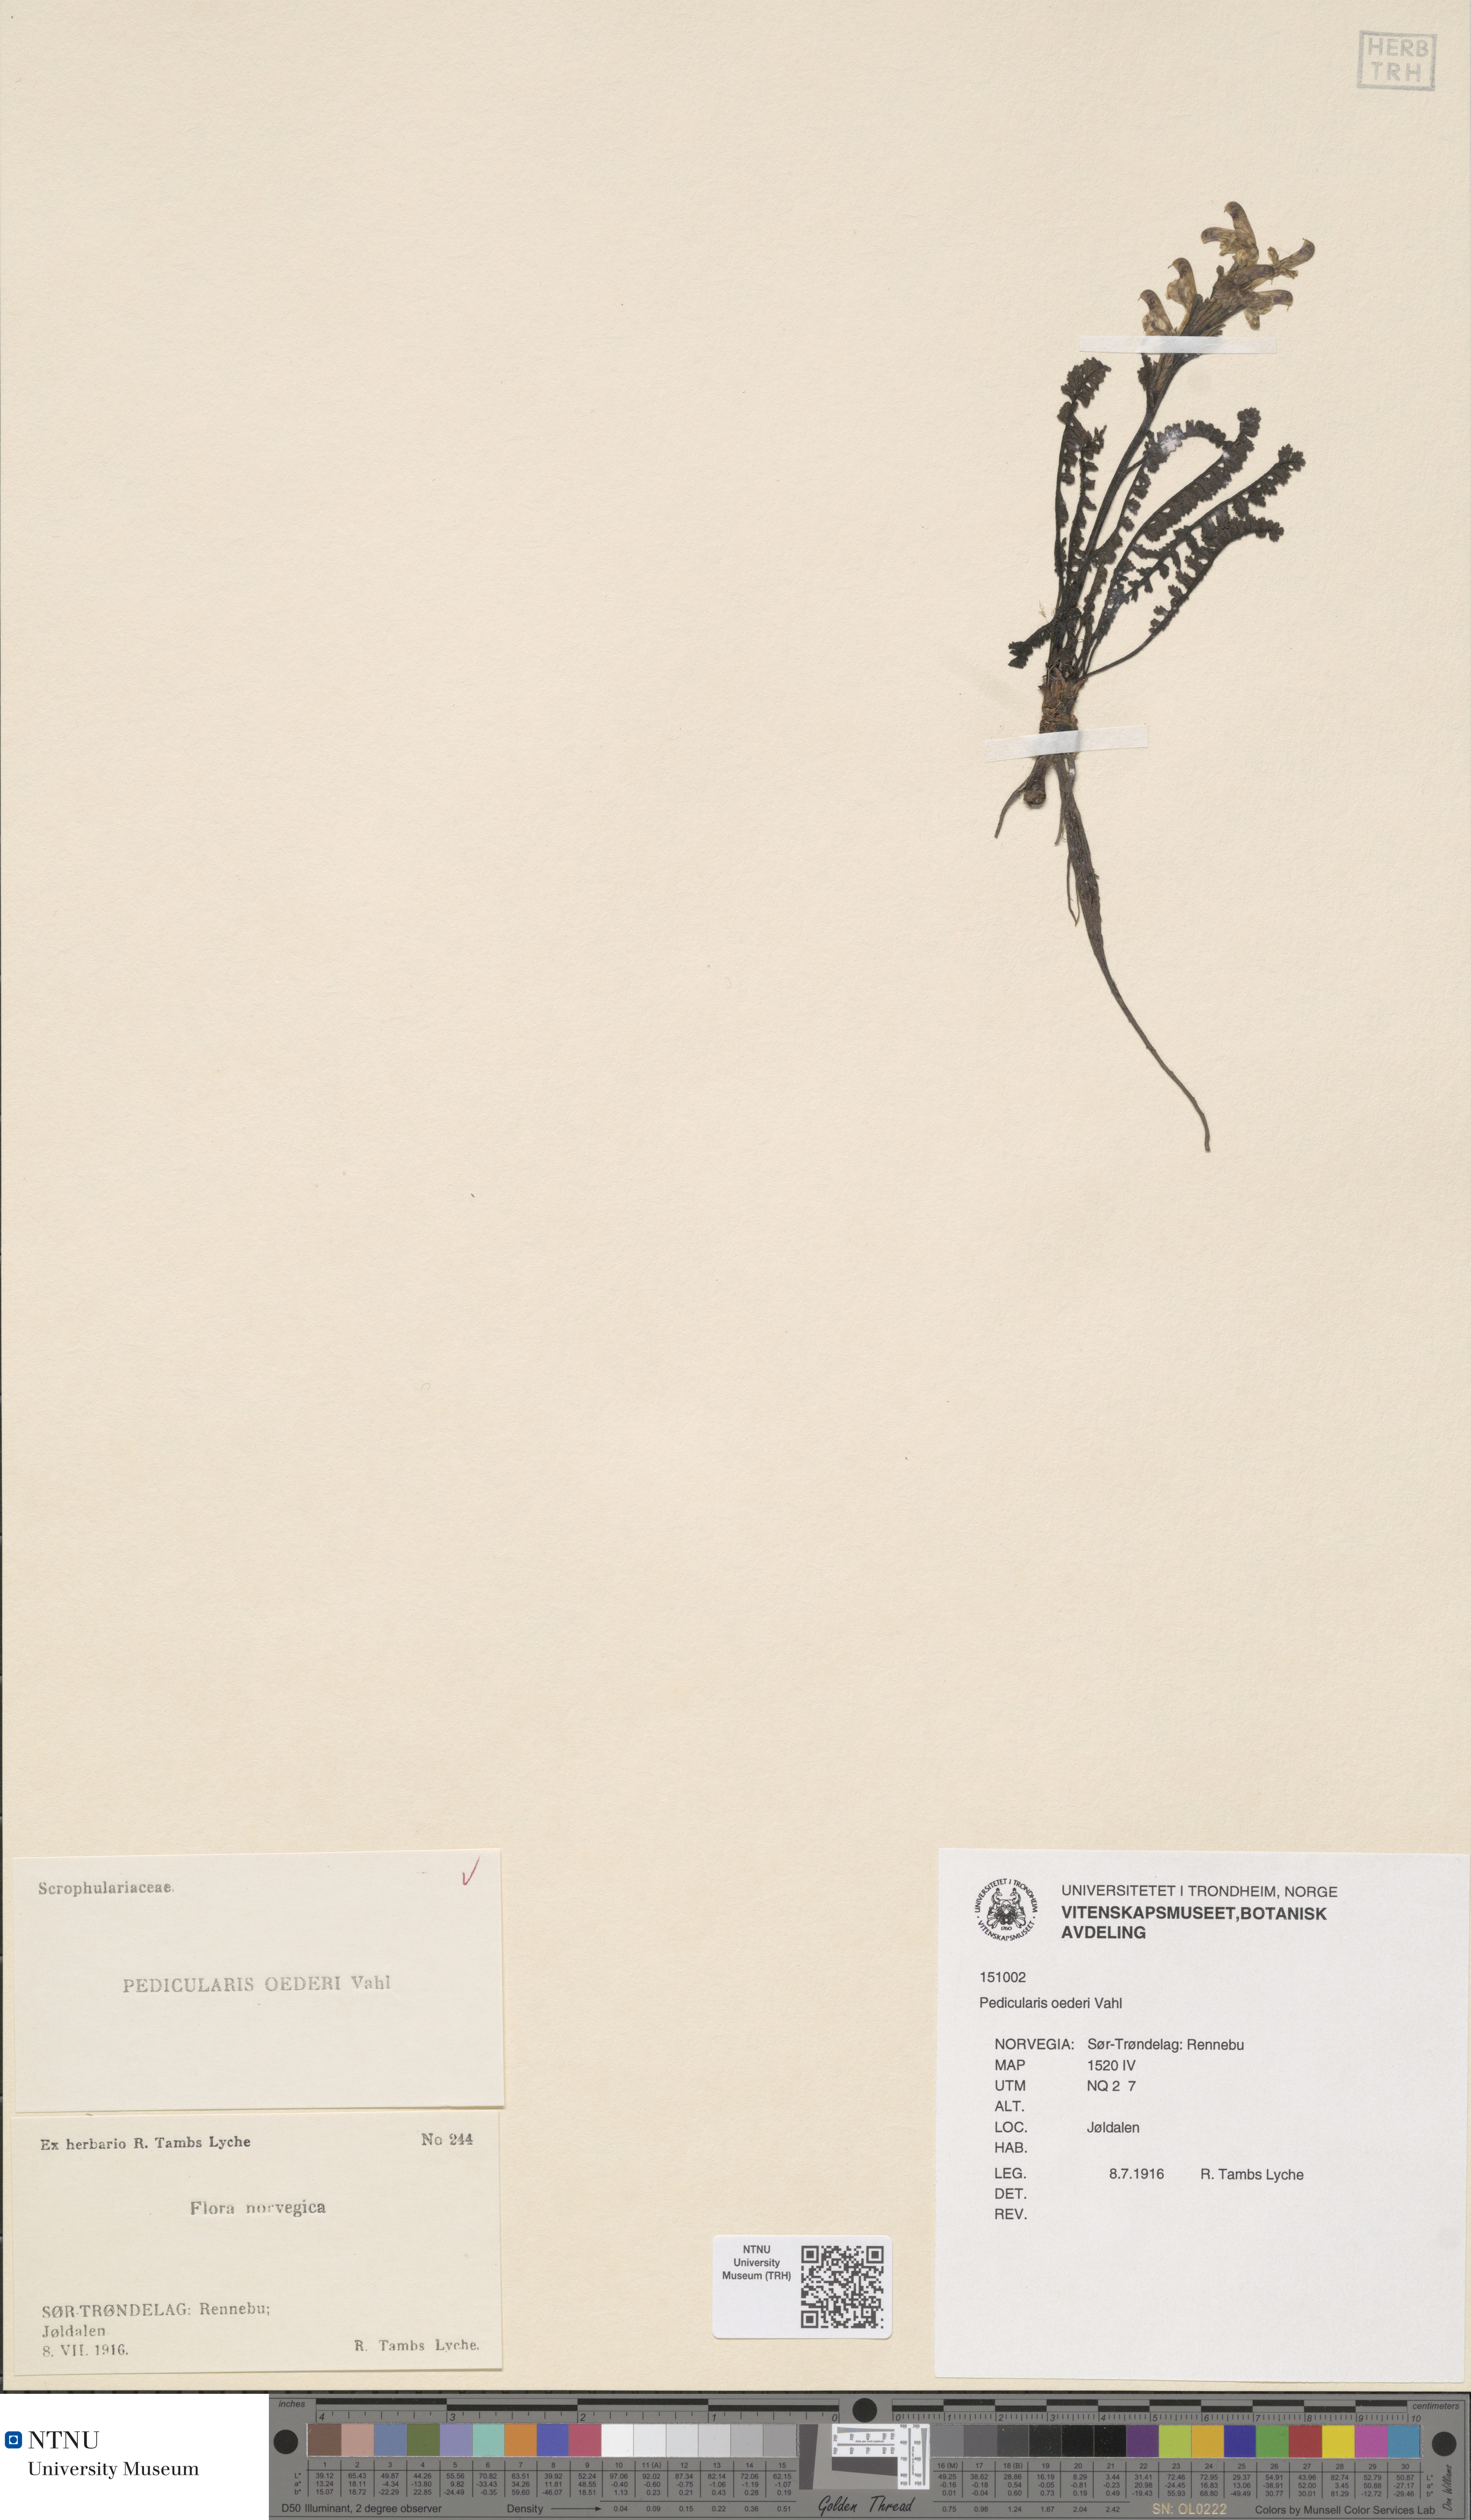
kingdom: Plantae
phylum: Tracheophyta
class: Magnoliopsida
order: Lamiales
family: Orobanchaceae
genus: Pedicularis
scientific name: Pedicularis oederi
